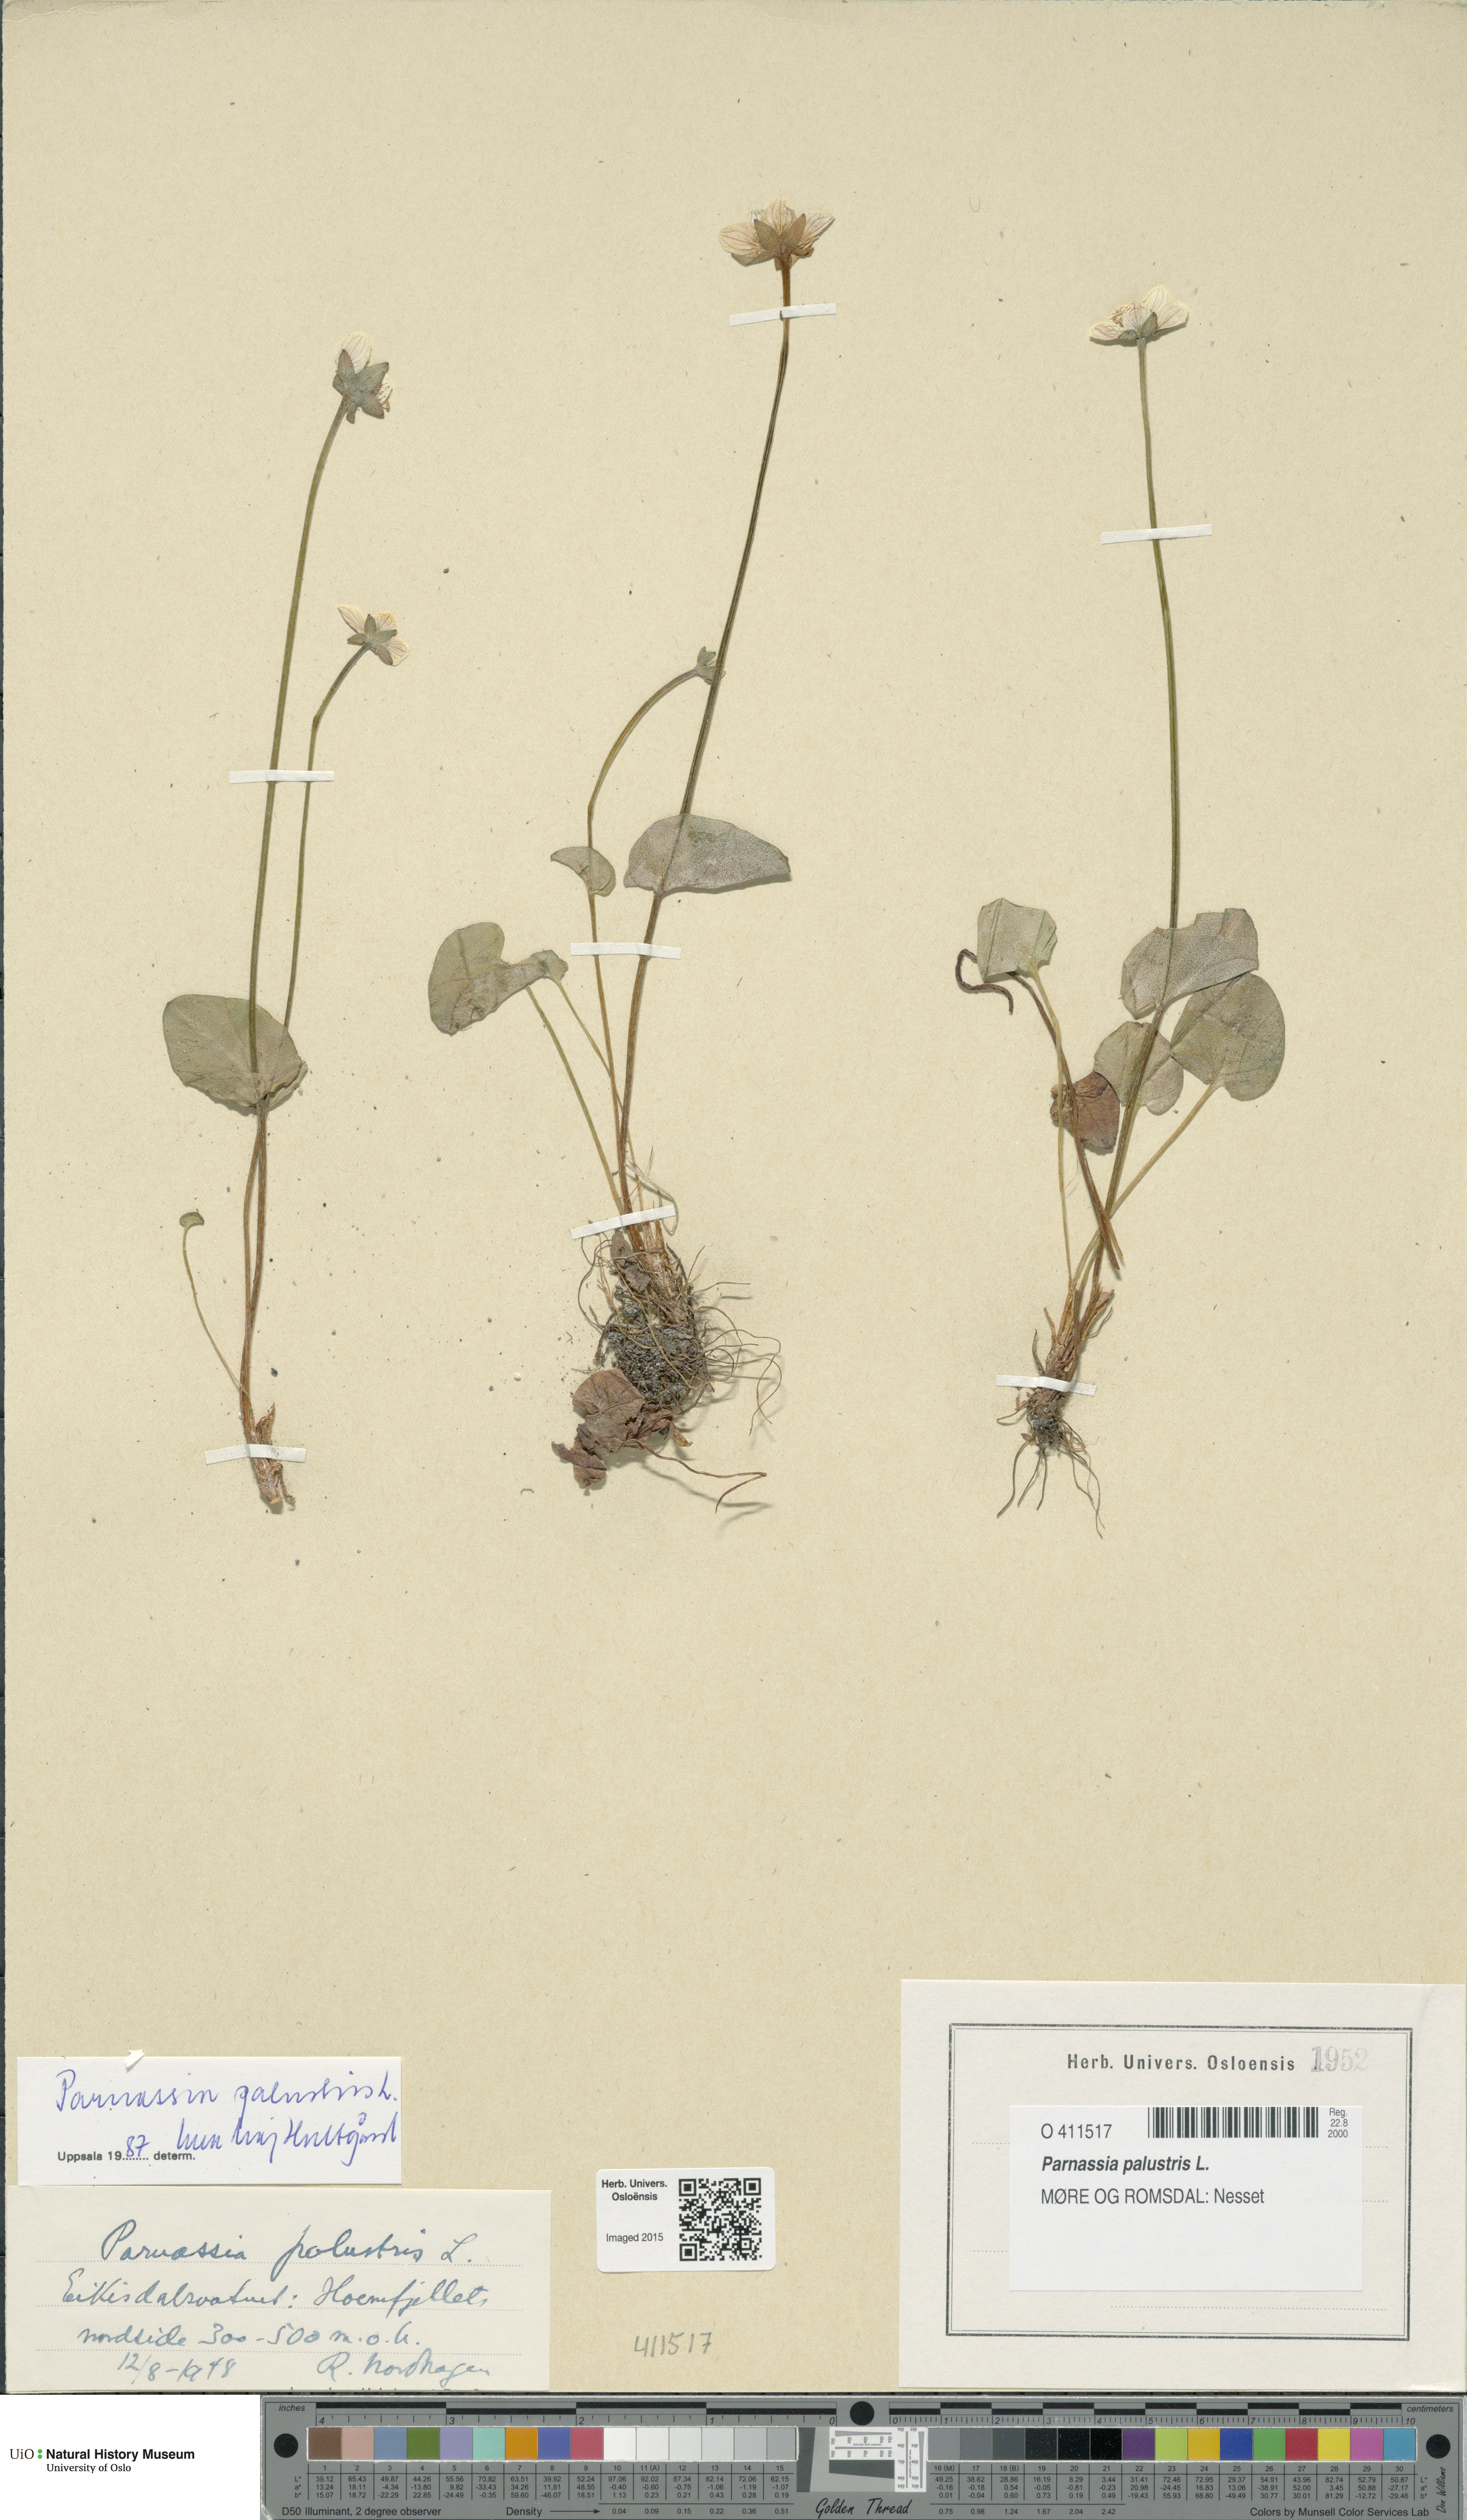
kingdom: Plantae
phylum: Tracheophyta
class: Magnoliopsida
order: Celastrales
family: Parnassiaceae
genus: Parnassia
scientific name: Parnassia palustris
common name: Grass-of-parnassus
